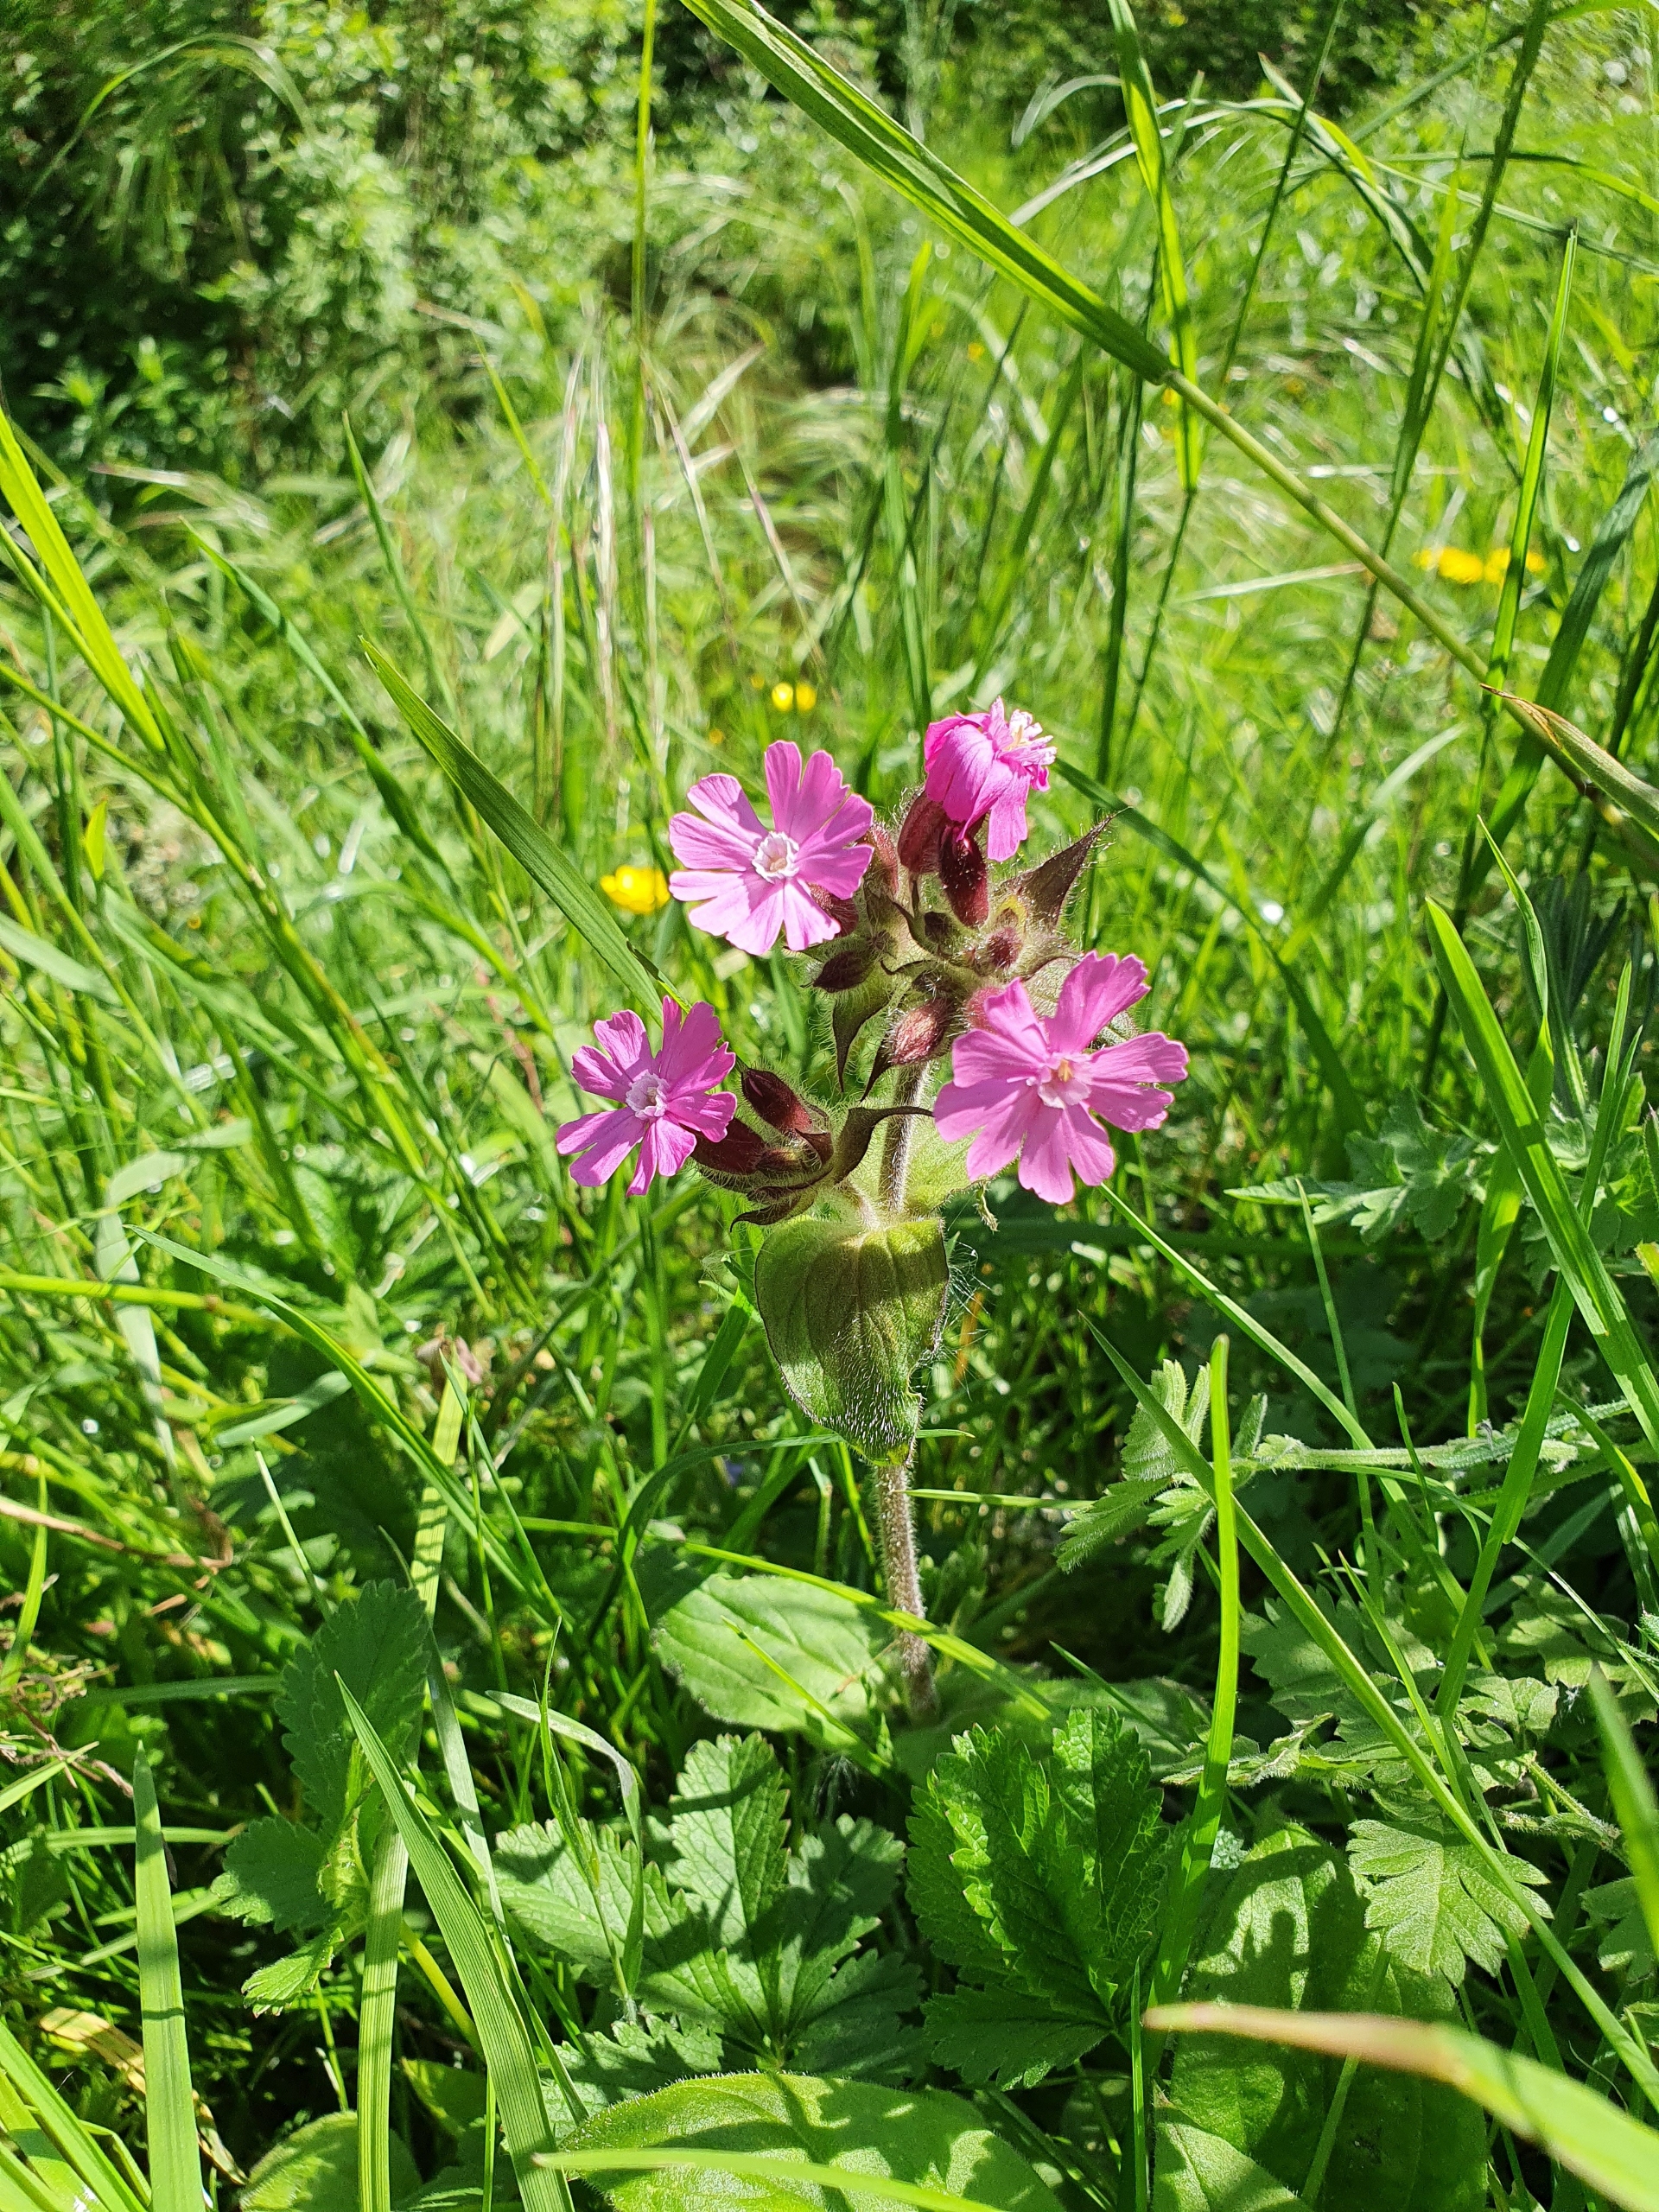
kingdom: Plantae
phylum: Tracheophyta
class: Magnoliopsida
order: Caryophyllales
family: Caryophyllaceae
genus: Silene
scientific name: Silene dioica
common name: Dagpragtstjerne
